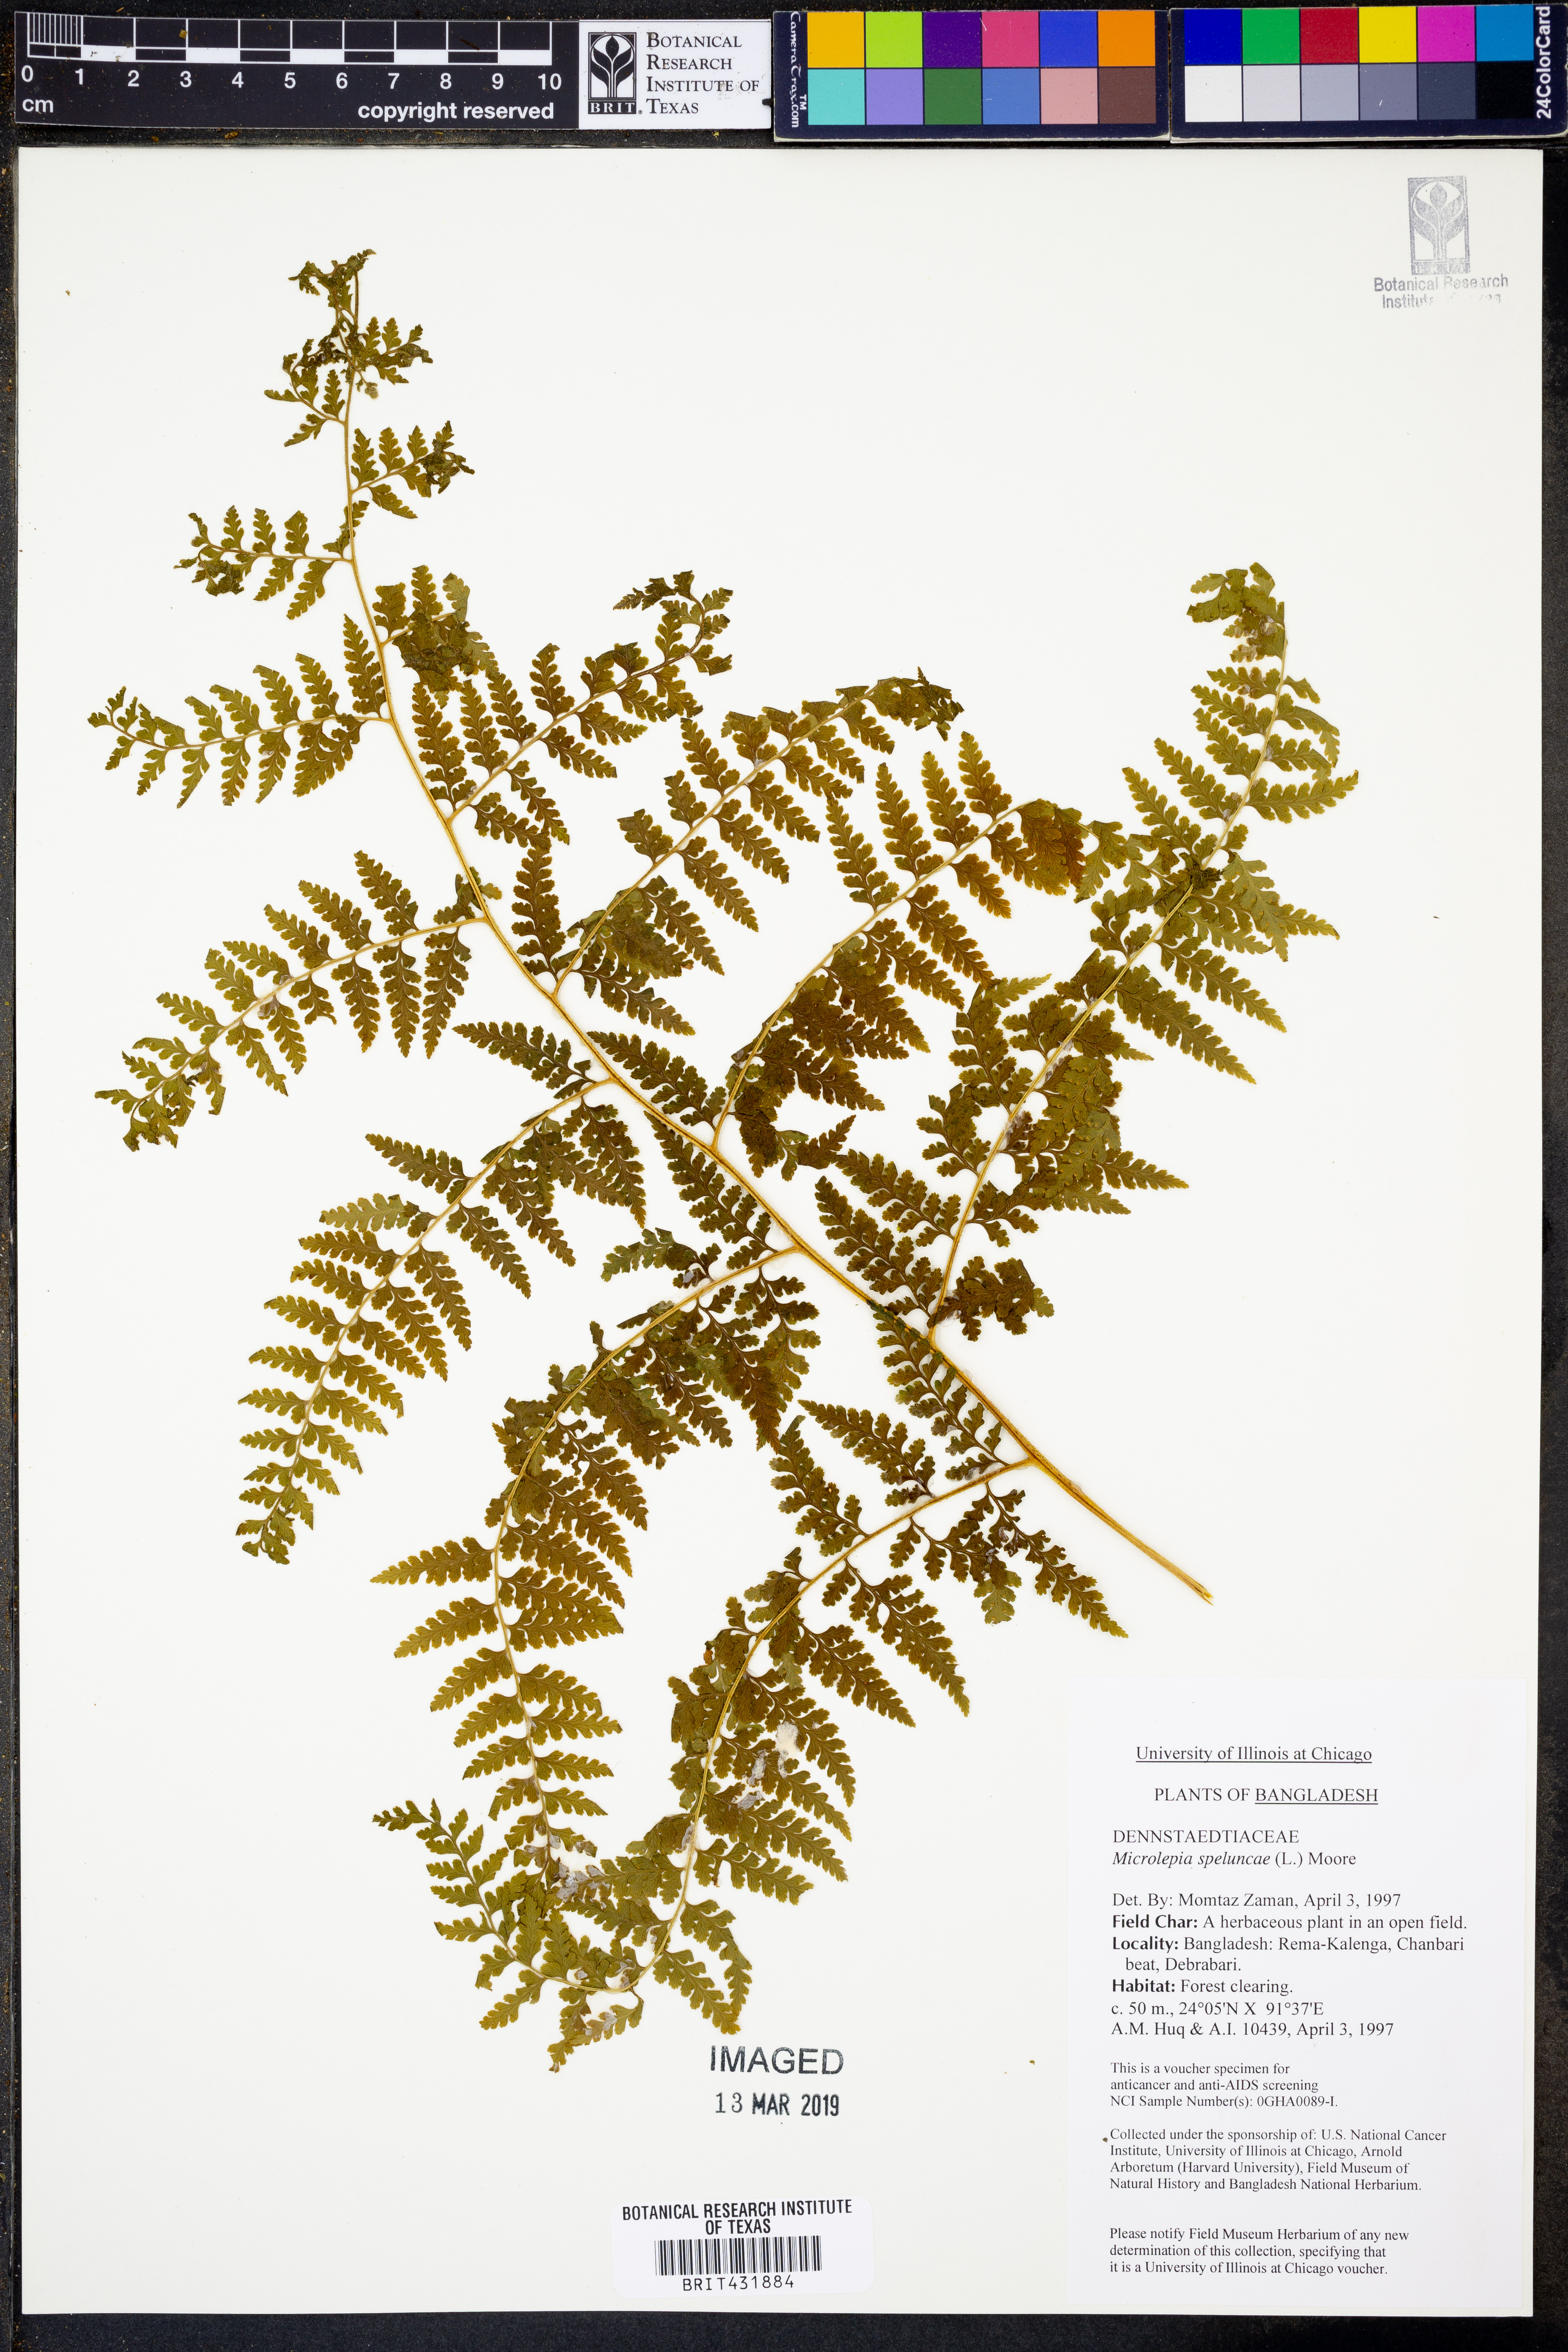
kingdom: Plantae
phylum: Tracheophyta
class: Polypodiopsida
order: Polypodiales
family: Dennstaedtiaceae
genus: Microlepia
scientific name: Microlepia speluncae
